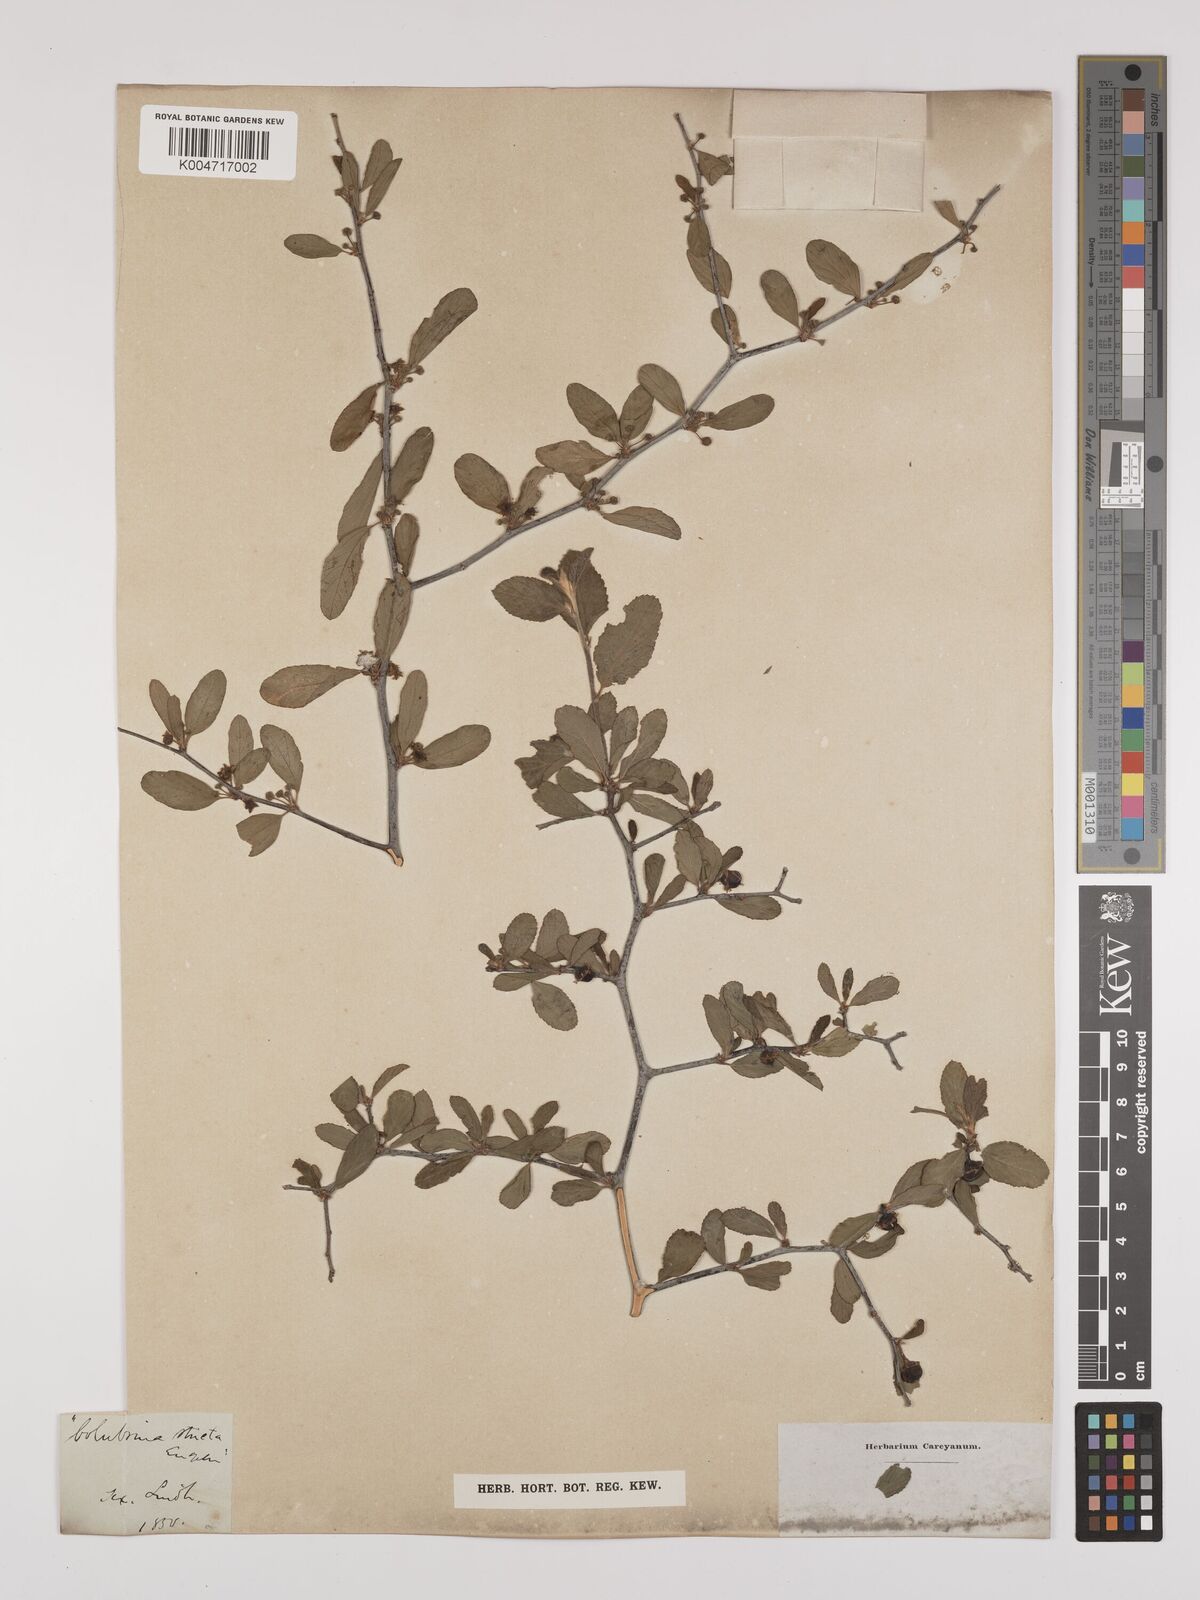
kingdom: Plantae
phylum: Tracheophyta
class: Magnoliopsida
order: Rosales
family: Rhamnaceae
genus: Colubrina
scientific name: Colubrina
